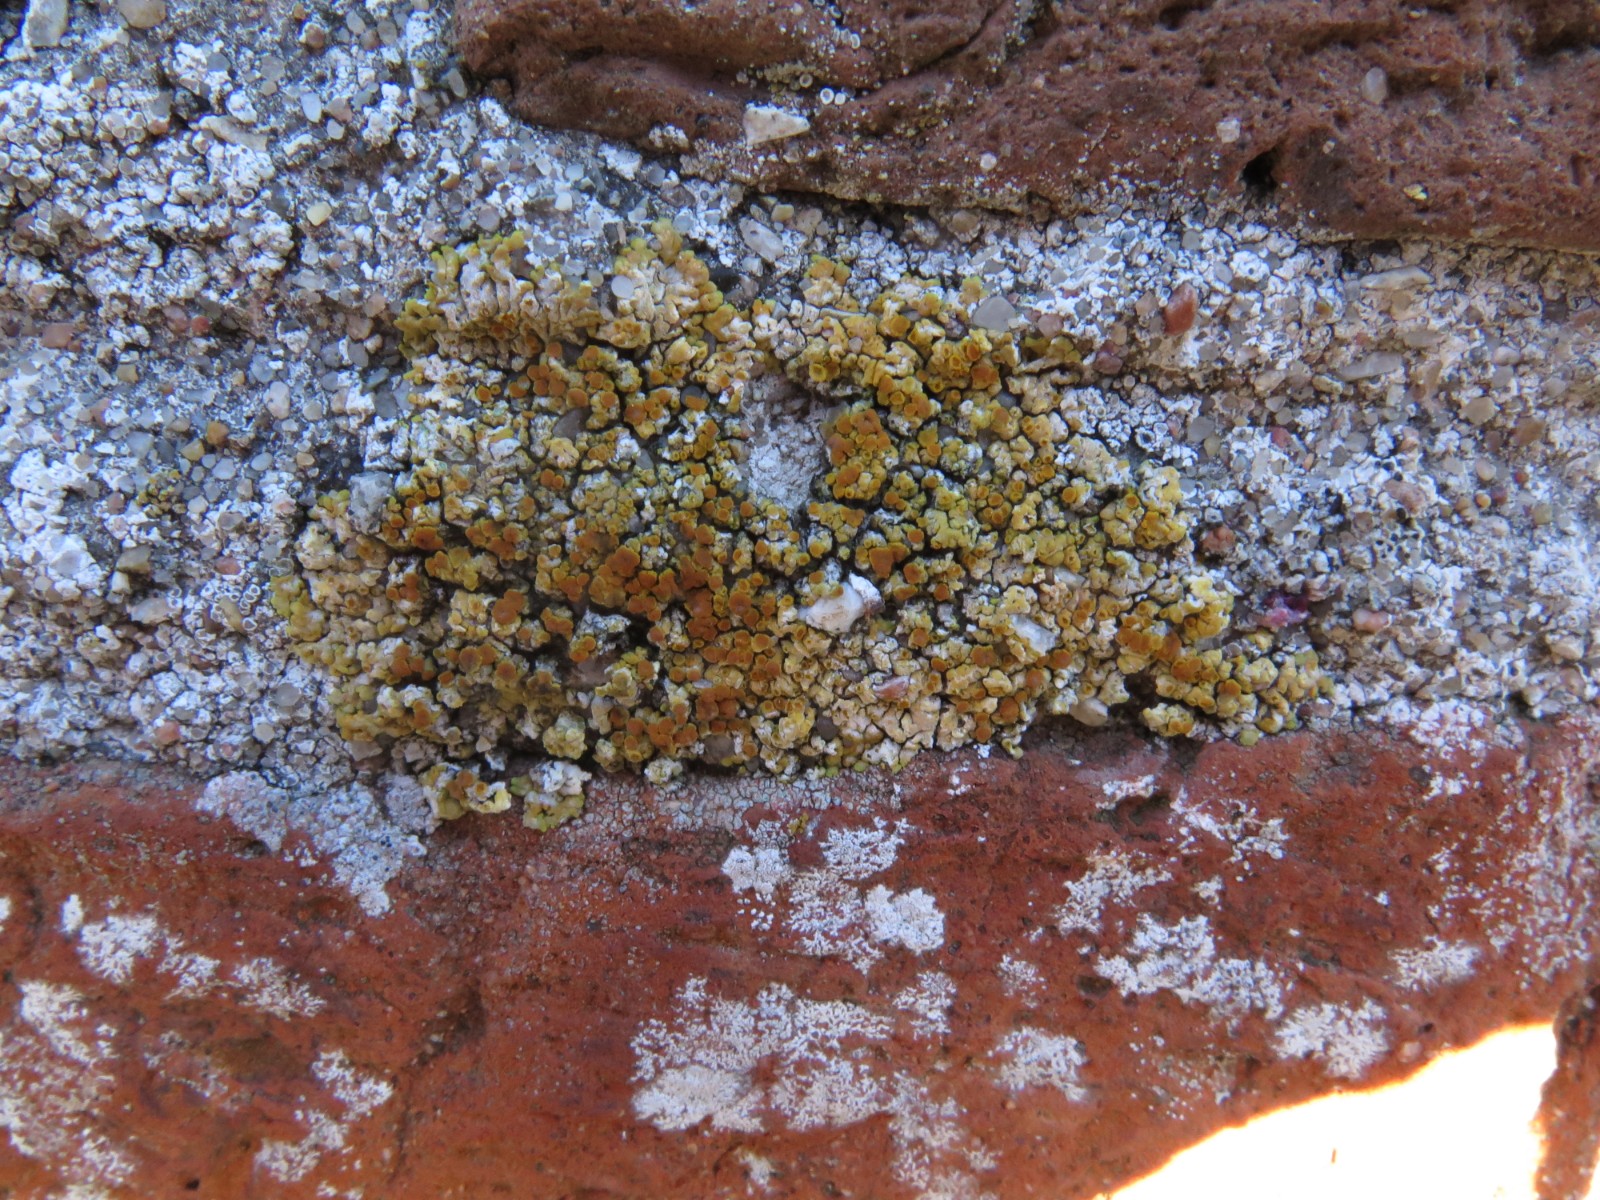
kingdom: Fungi
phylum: Ascomycota
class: Lecanoromycetes
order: Teloschistales
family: Teloschistaceae
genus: Calogaya
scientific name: Calogaya pusilla
